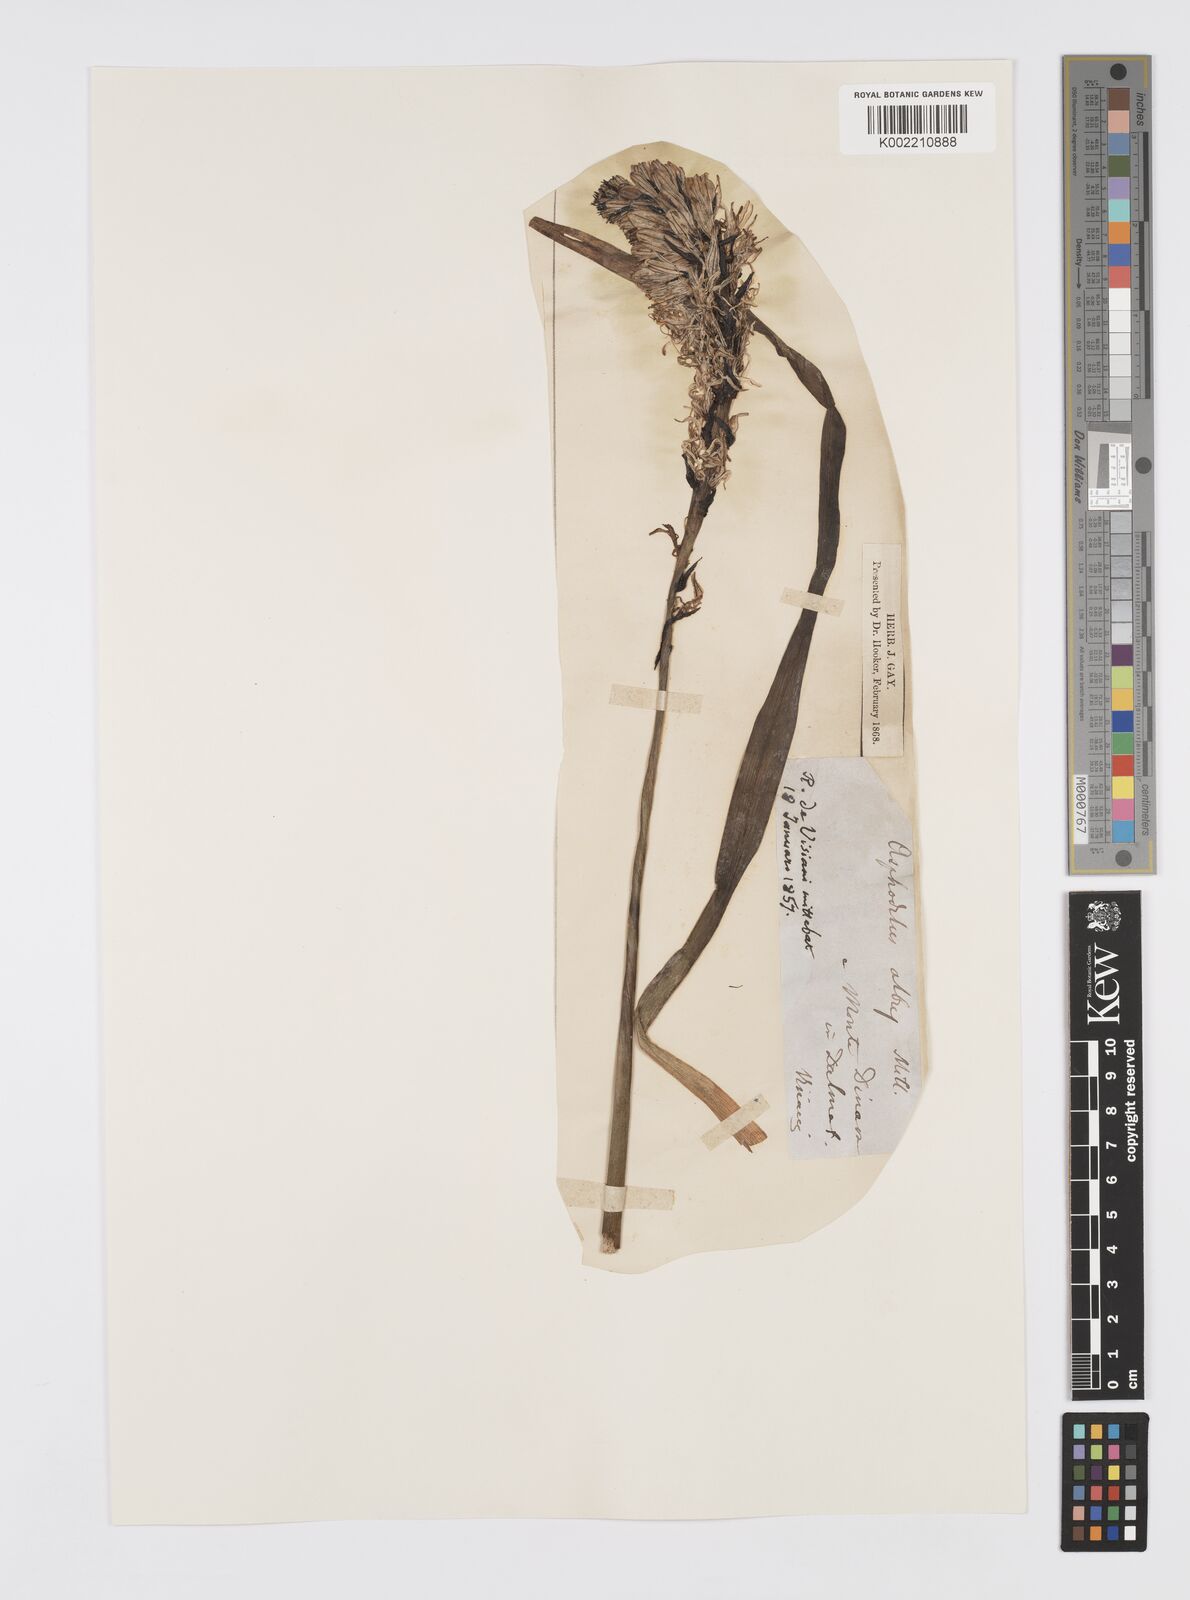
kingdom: Plantae
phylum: Tracheophyta
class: Liliopsida
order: Asparagales
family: Asphodelaceae
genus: Asphodelus
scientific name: Asphodelus albus
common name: White asphodel
